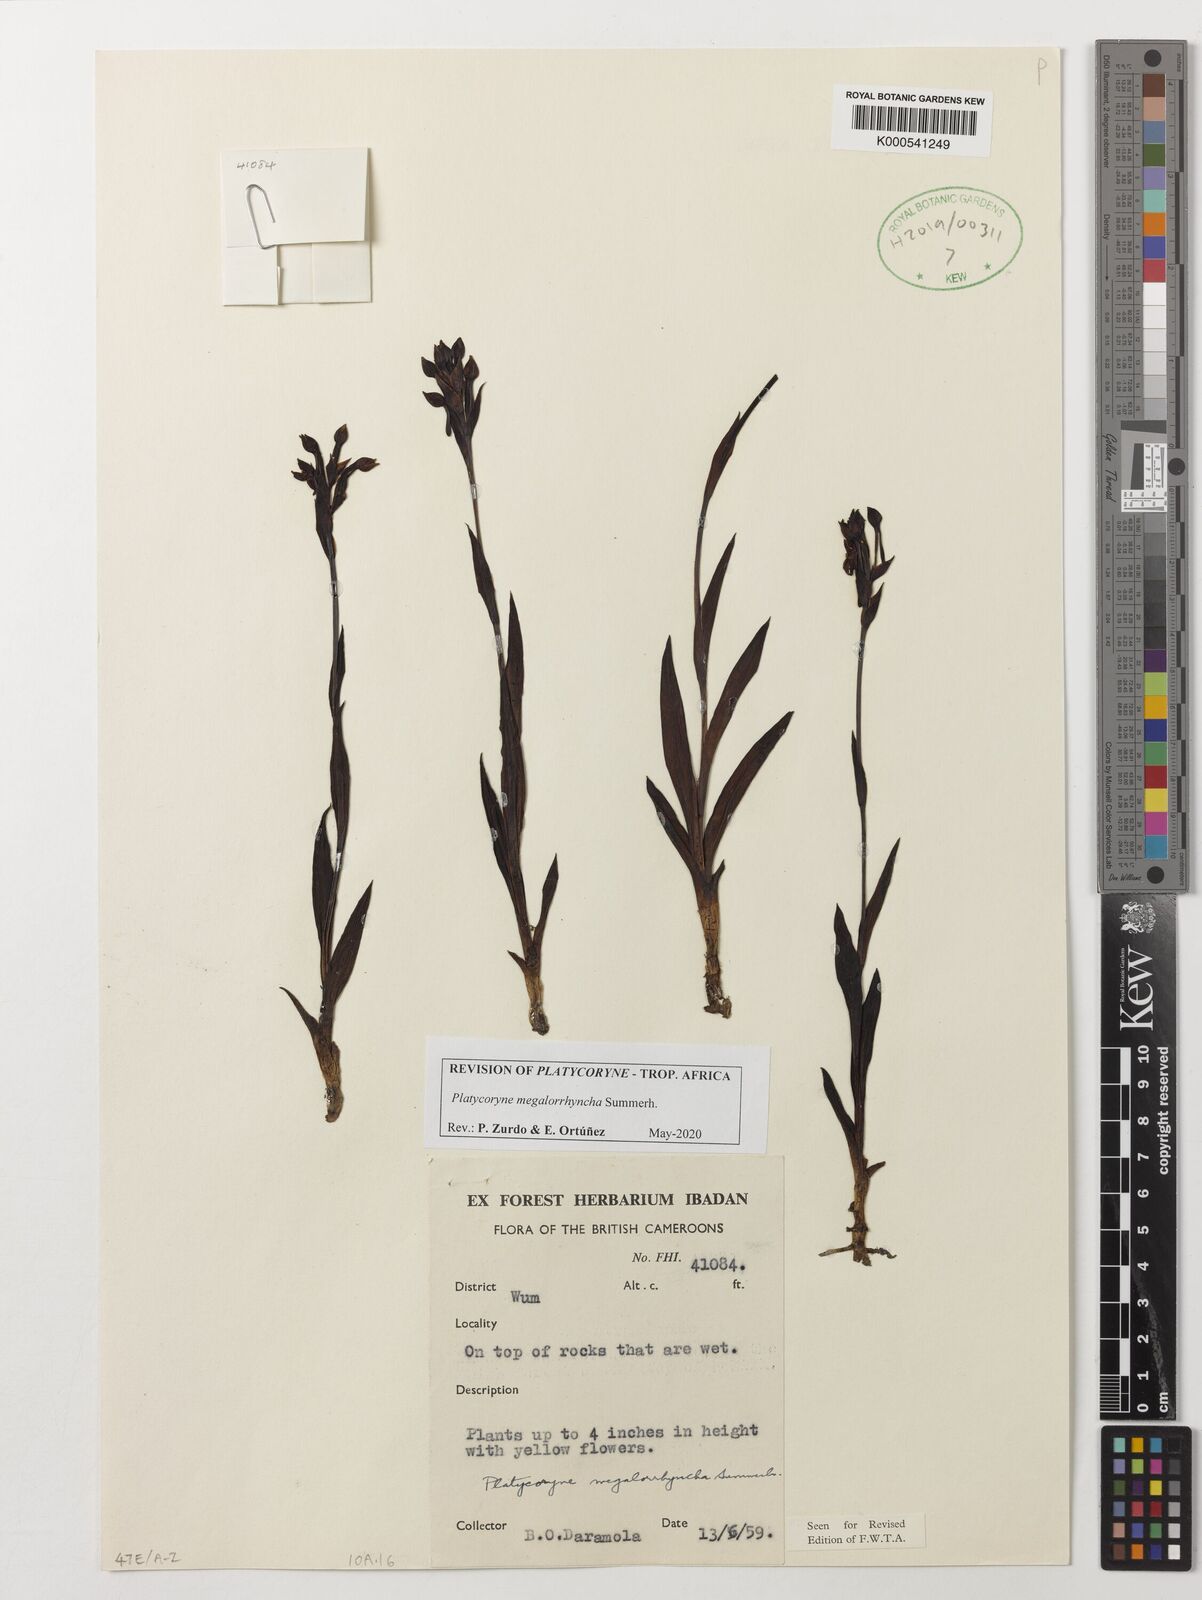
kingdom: Plantae
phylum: Tracheophyta
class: Liliopsida
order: Asparagales
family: Orchidaceae
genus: Platycoryne
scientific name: Platycoryne megalorrhyncha
